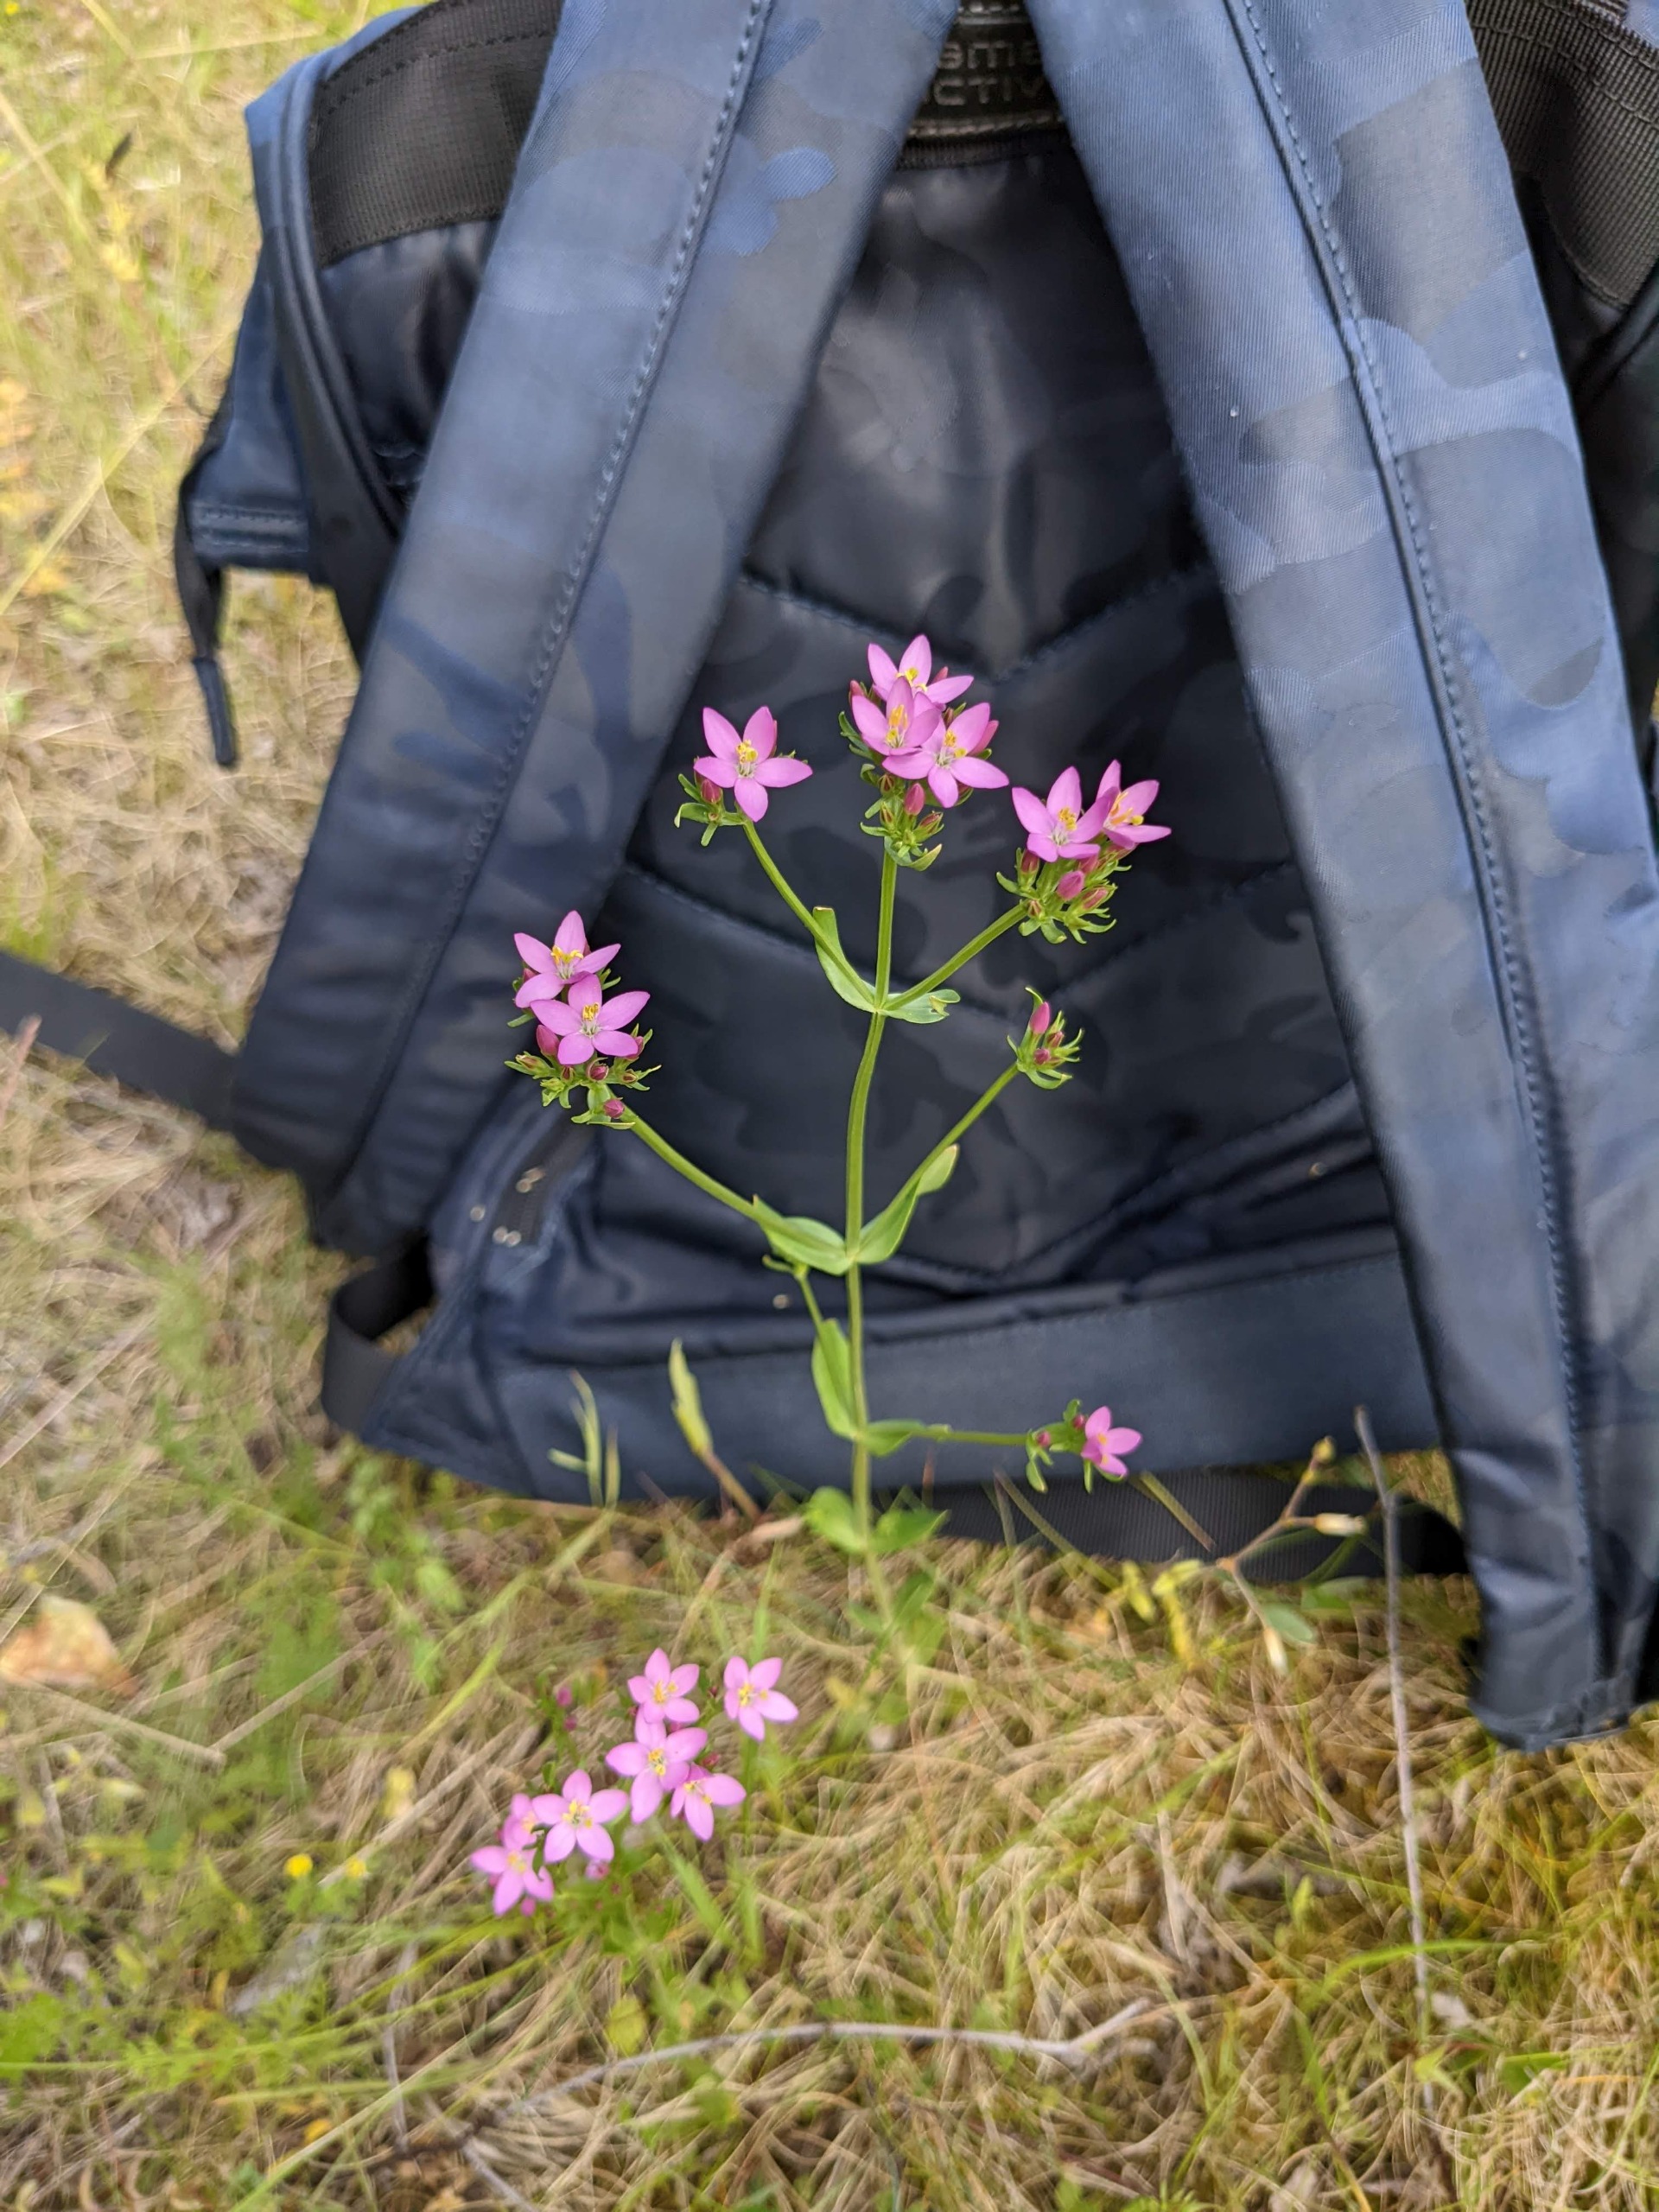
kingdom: Plantae
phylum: Tracheophyta
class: Magnoliopsida
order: Gentianales
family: Gentianaceae
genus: Centaurium
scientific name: Centaurium erythraea
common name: Mark-tusindgylden
